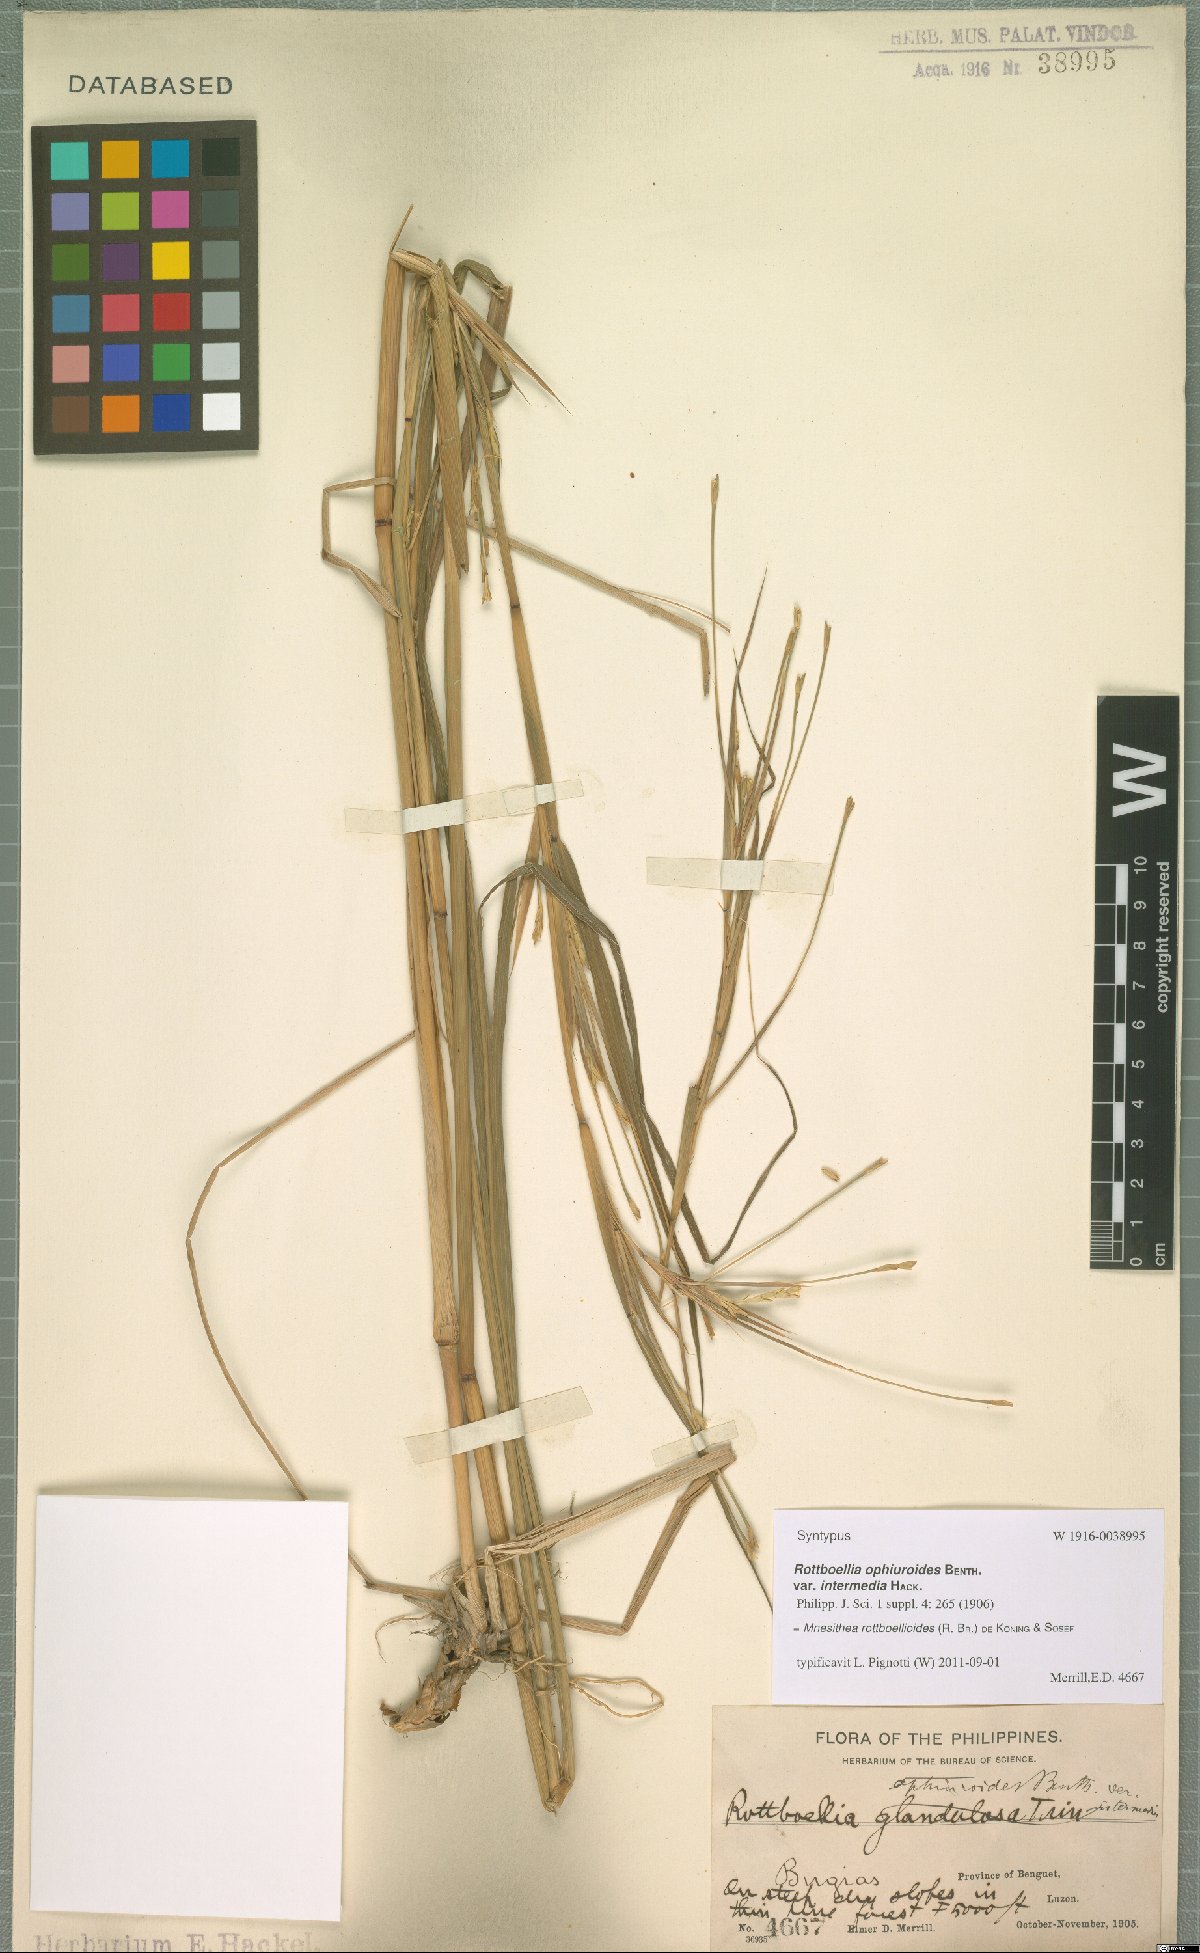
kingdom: Plantae
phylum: Tracheophyta
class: Liliopsida
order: Poales
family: Poaceae
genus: Rottboellia
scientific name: Rottboellia rottboellioides
